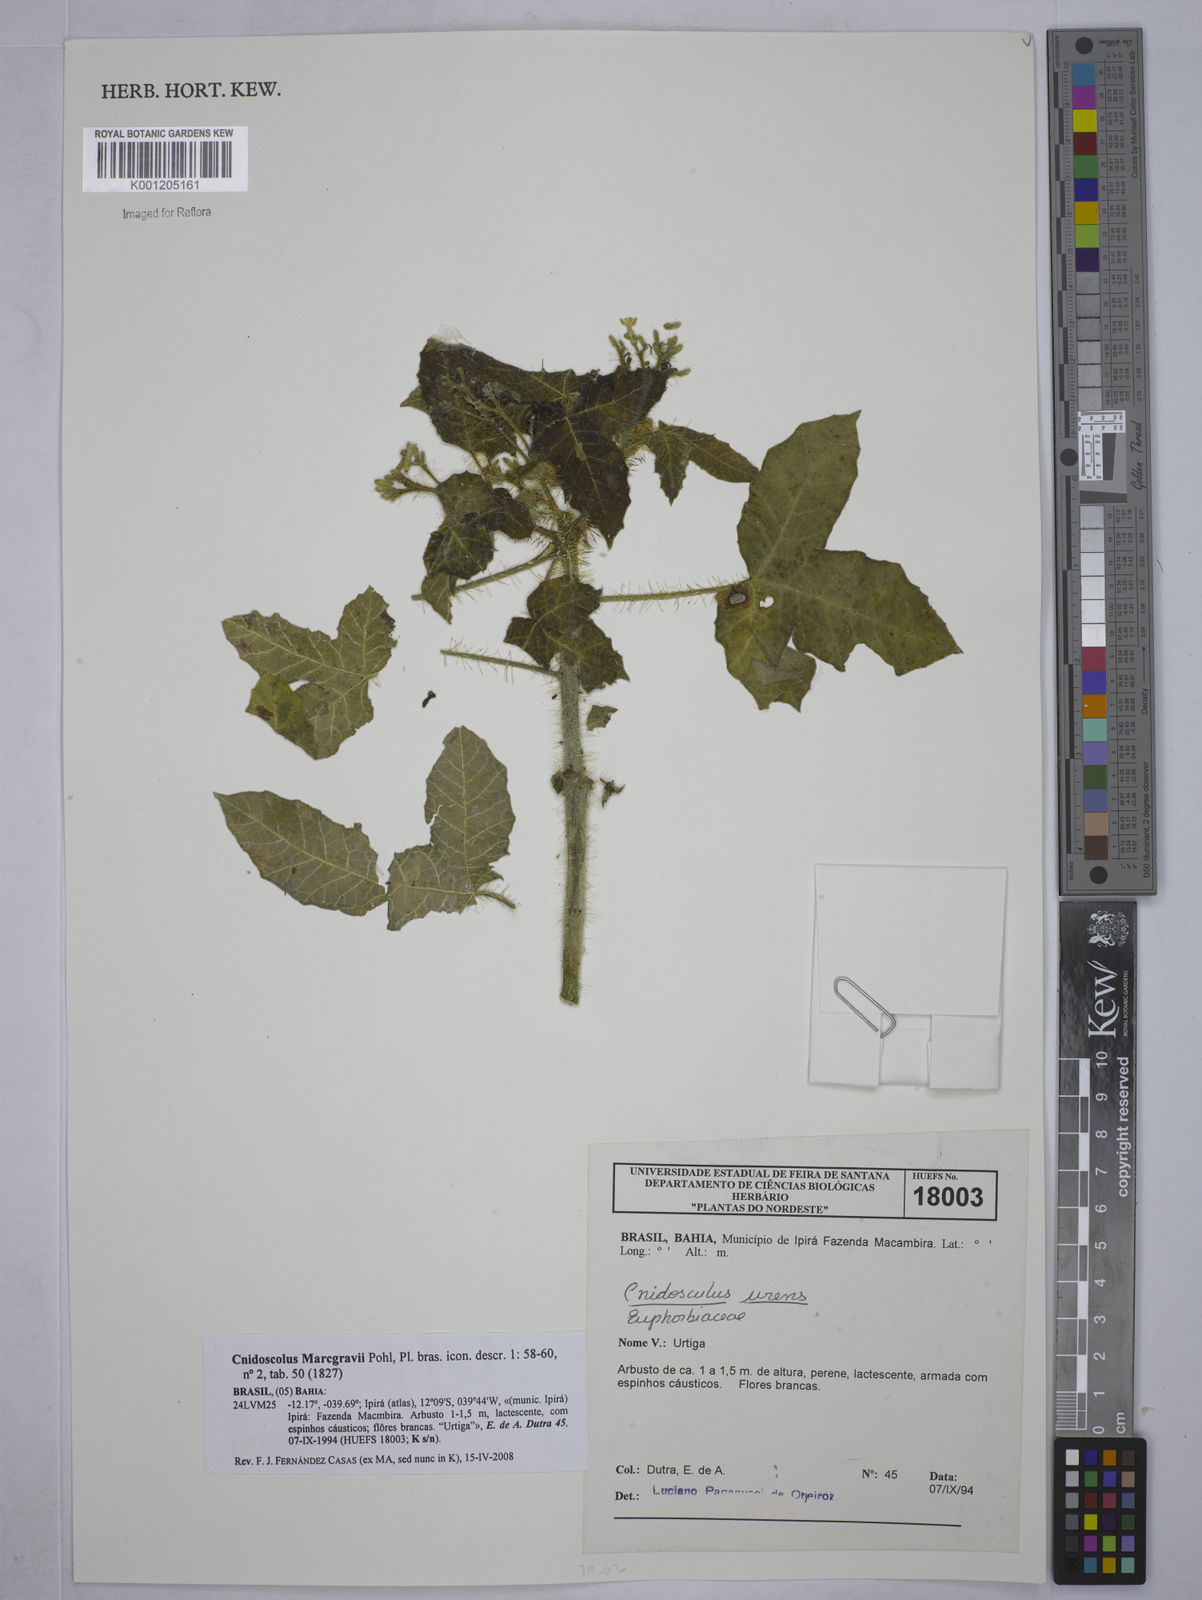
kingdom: Plantae
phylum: Tracheophyta
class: Magnoliopsida
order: Malpighiales
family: Euphorbiaceae
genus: Cnidoscolus
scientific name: Cnidoscolus urens
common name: Bull-nettle
